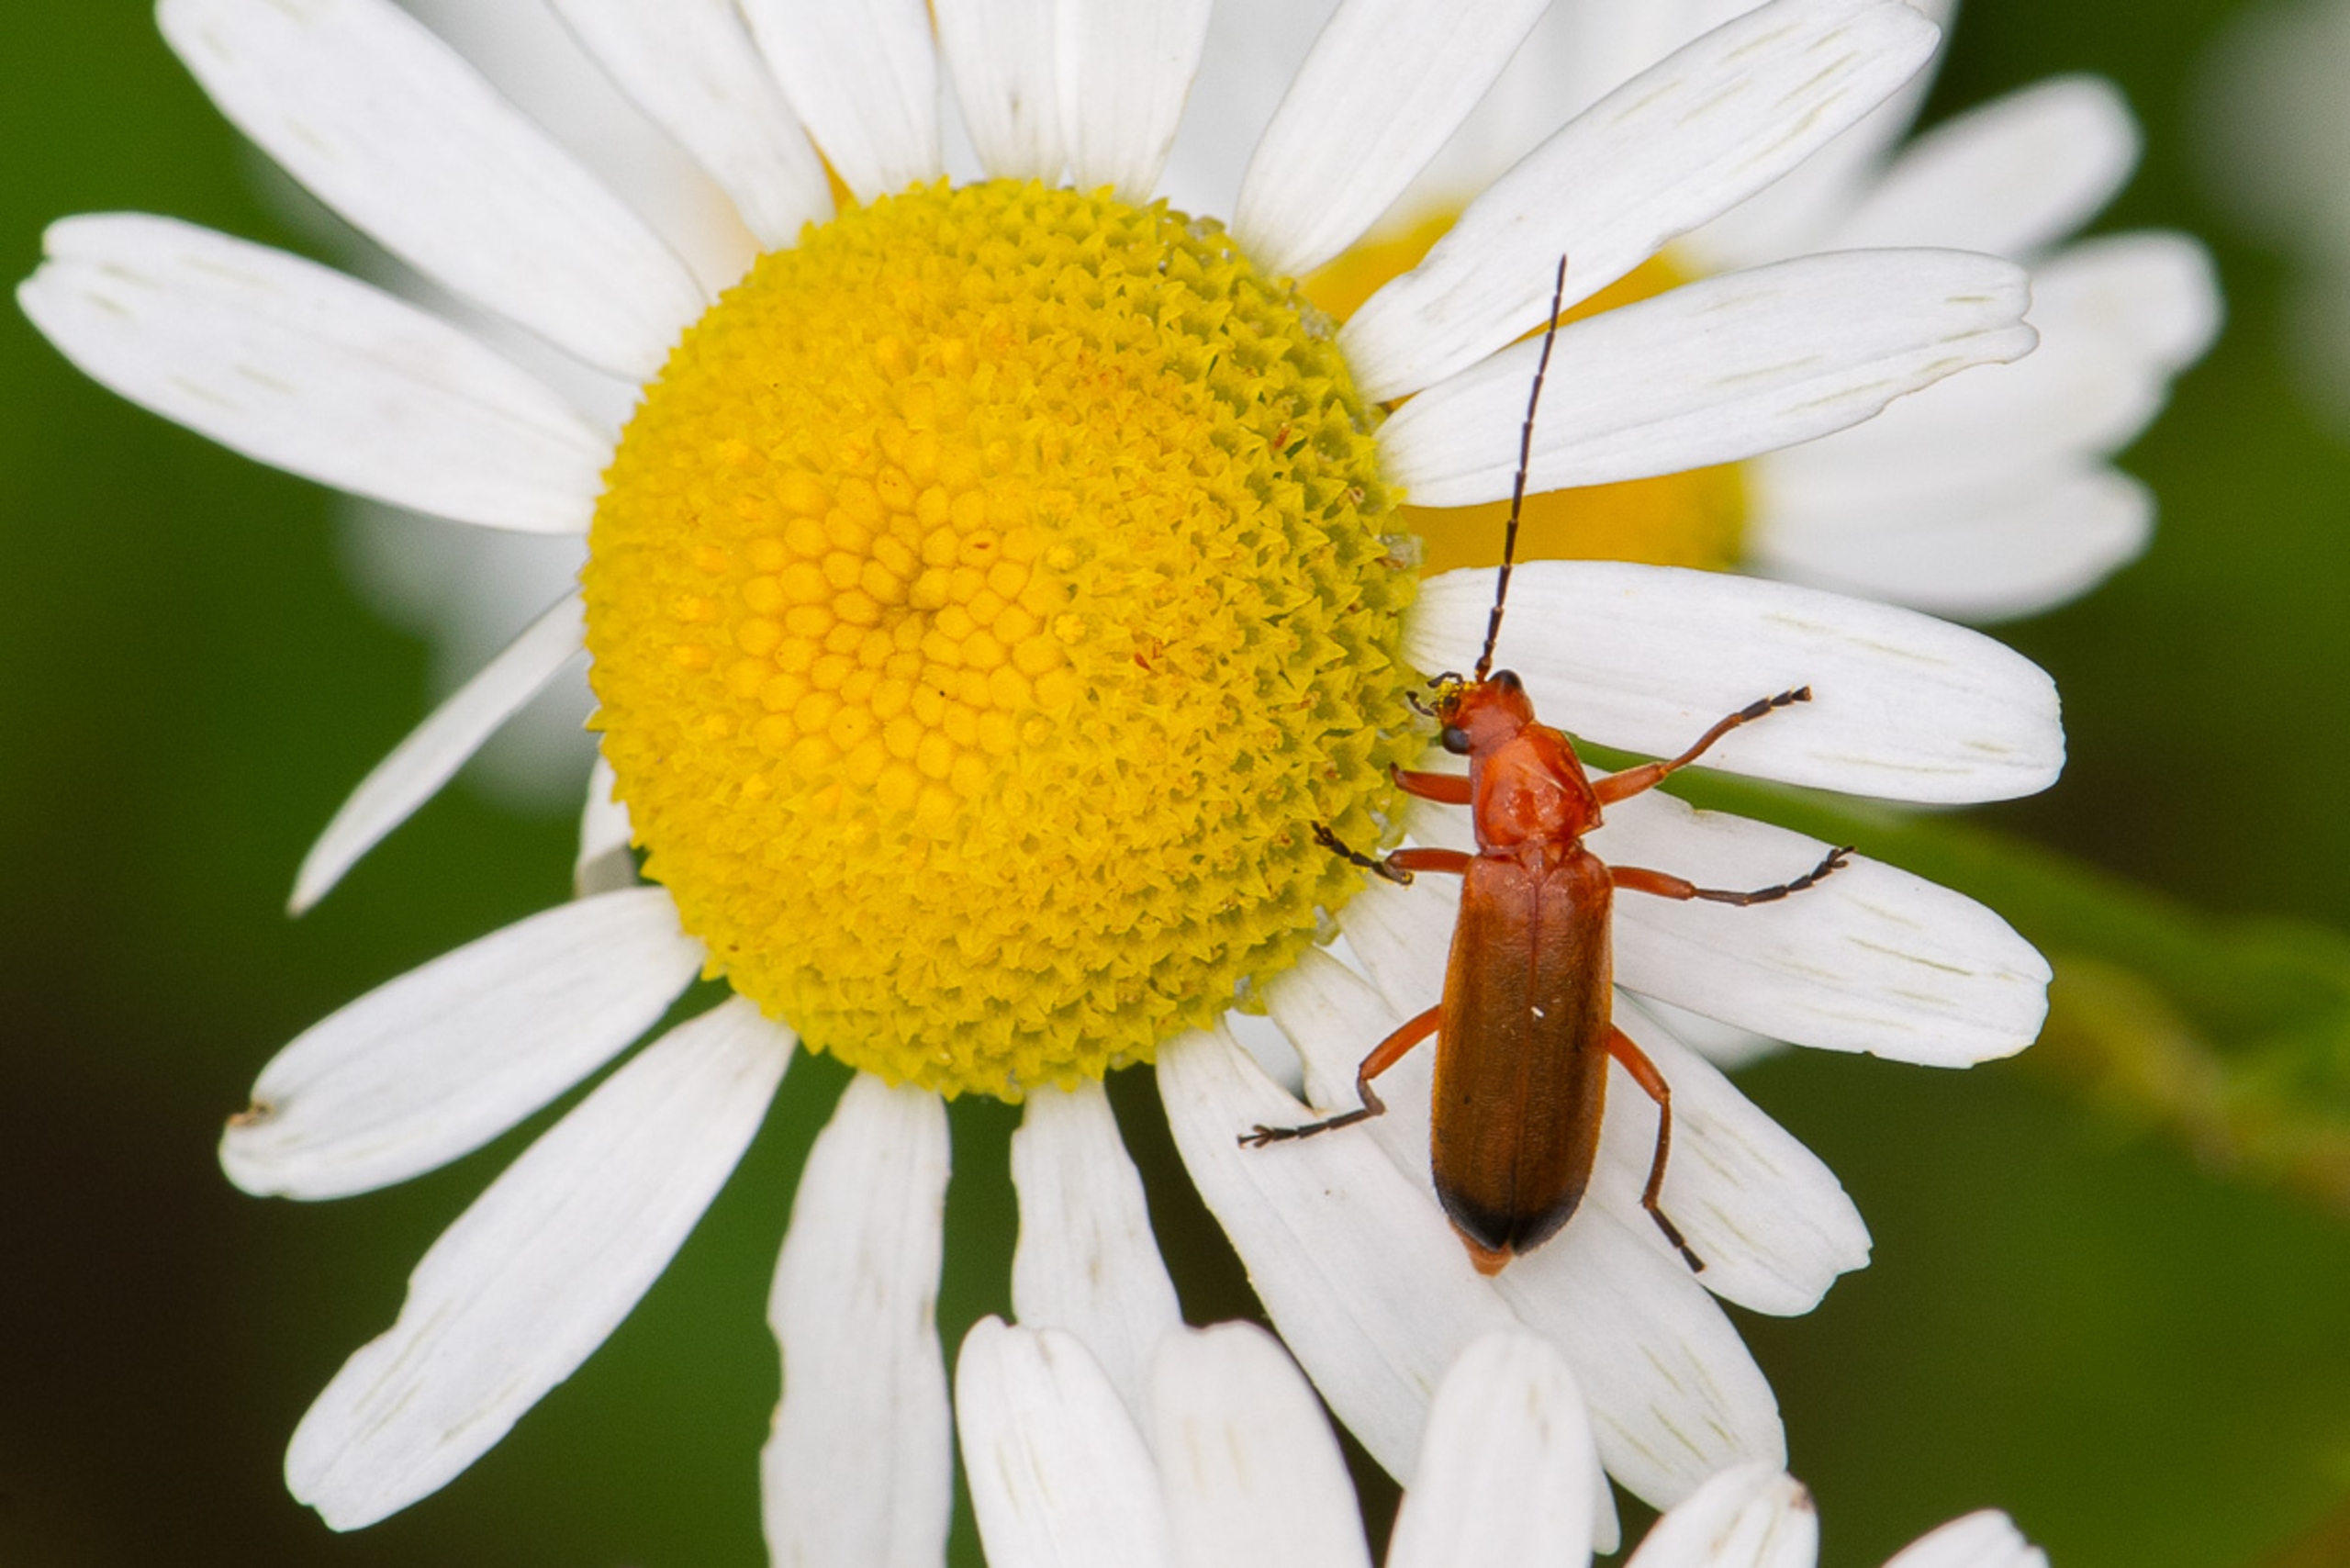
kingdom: Animalia
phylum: Arthropoda
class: Insecta
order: Coleoptera
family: Cantharidae
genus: Rhagonycha
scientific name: Rhagonycha fulva
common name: Præstebille
